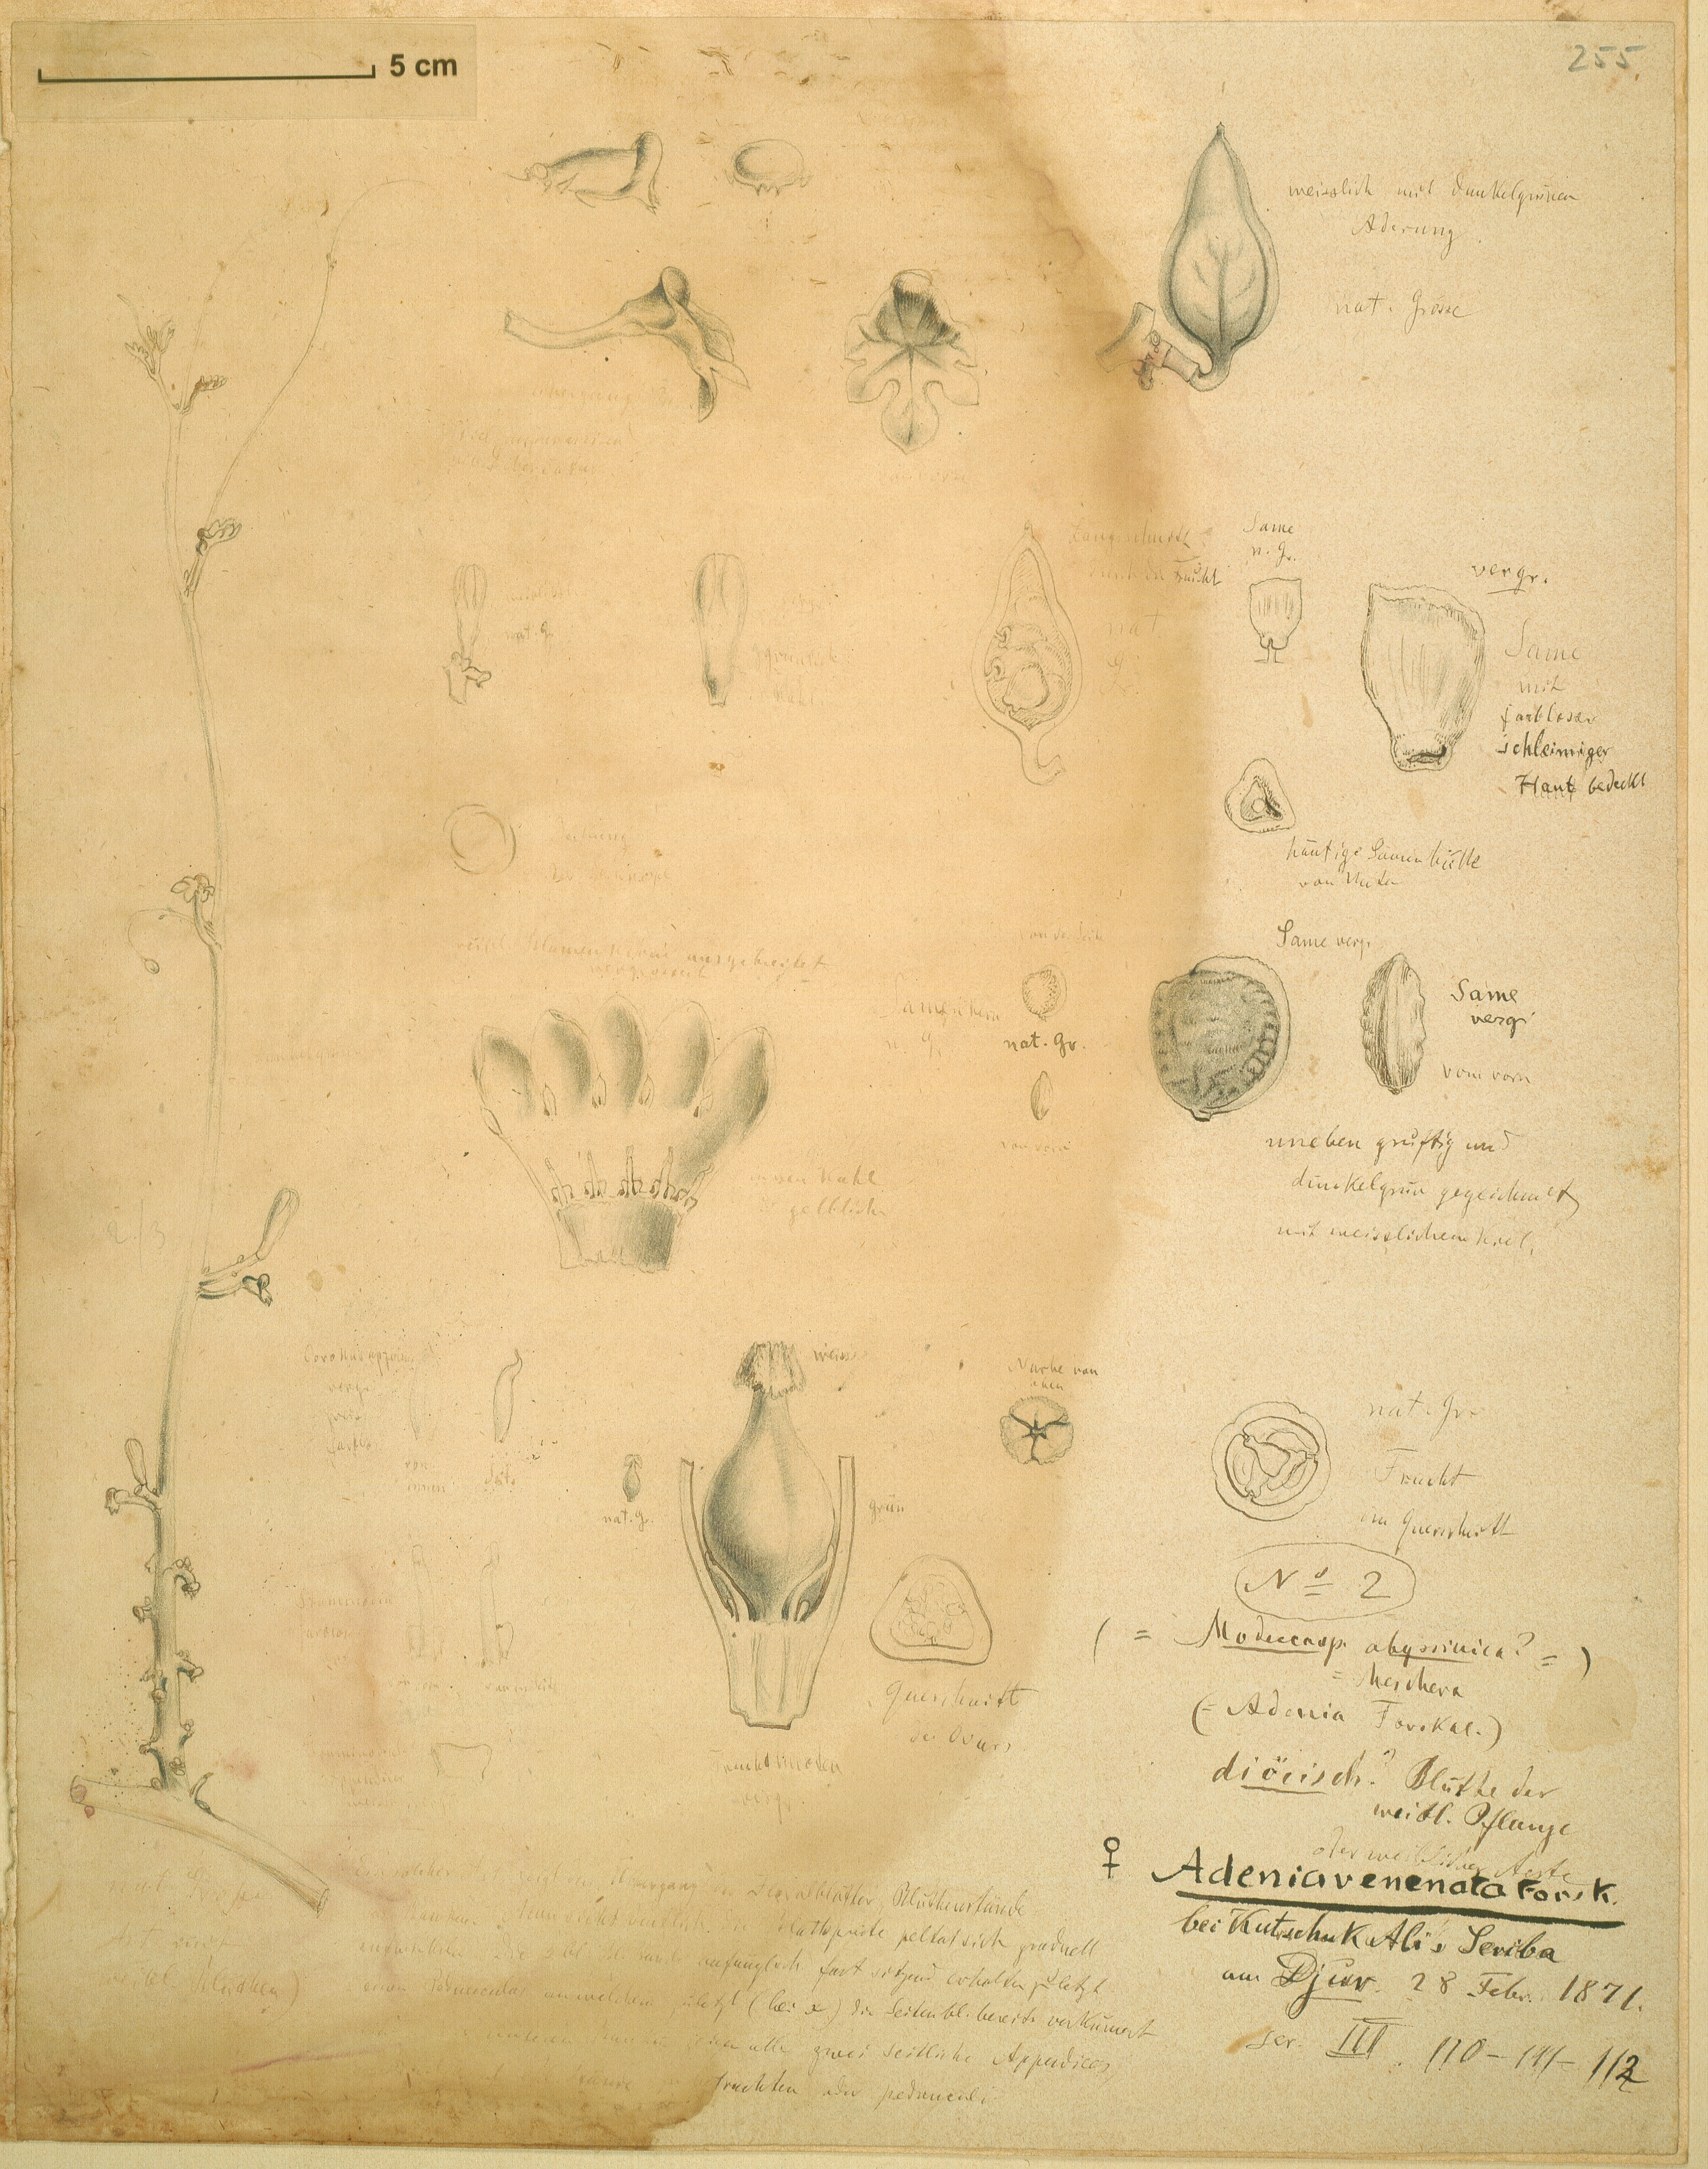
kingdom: Plantae
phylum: Tracheophyta
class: Magnoliopsida
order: Malpighiales
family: Passifloraceae
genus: Adenia
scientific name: Adenia venenata
